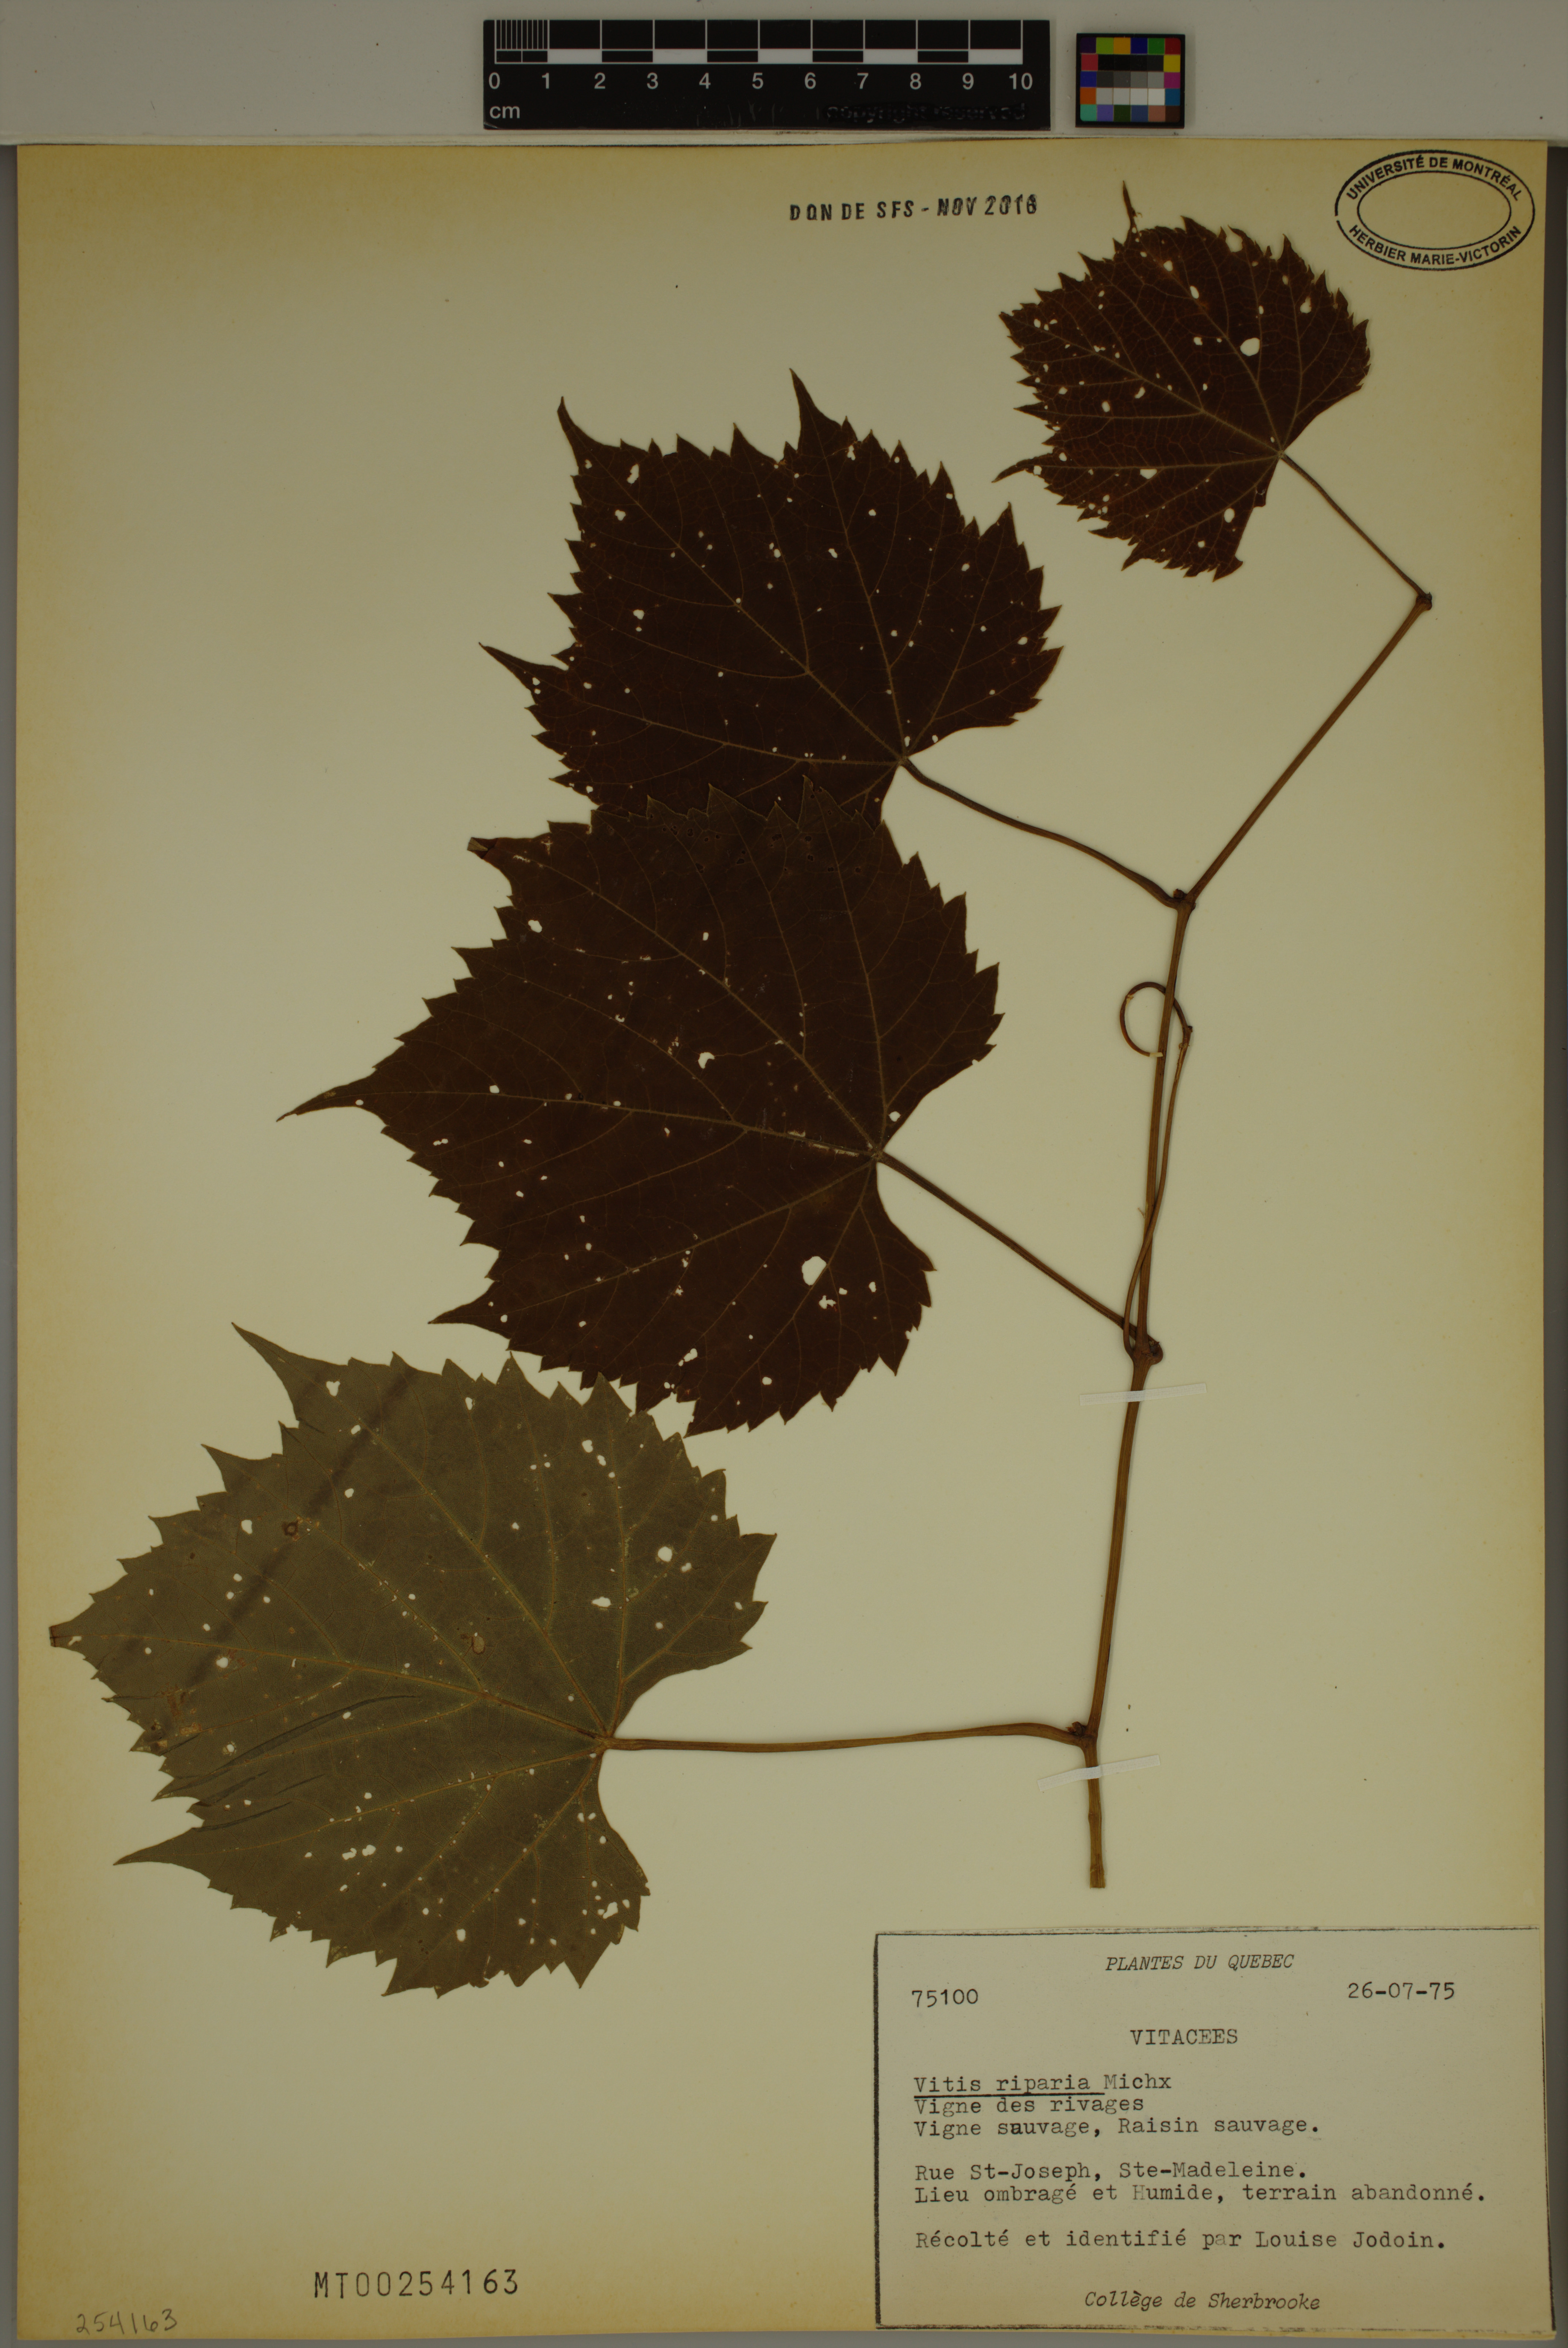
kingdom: Plantae
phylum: Tracheophyta
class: Magnoliopsida
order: Vitales
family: Vitaceae
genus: Vitis
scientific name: Vitis riparia
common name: Frost grape
